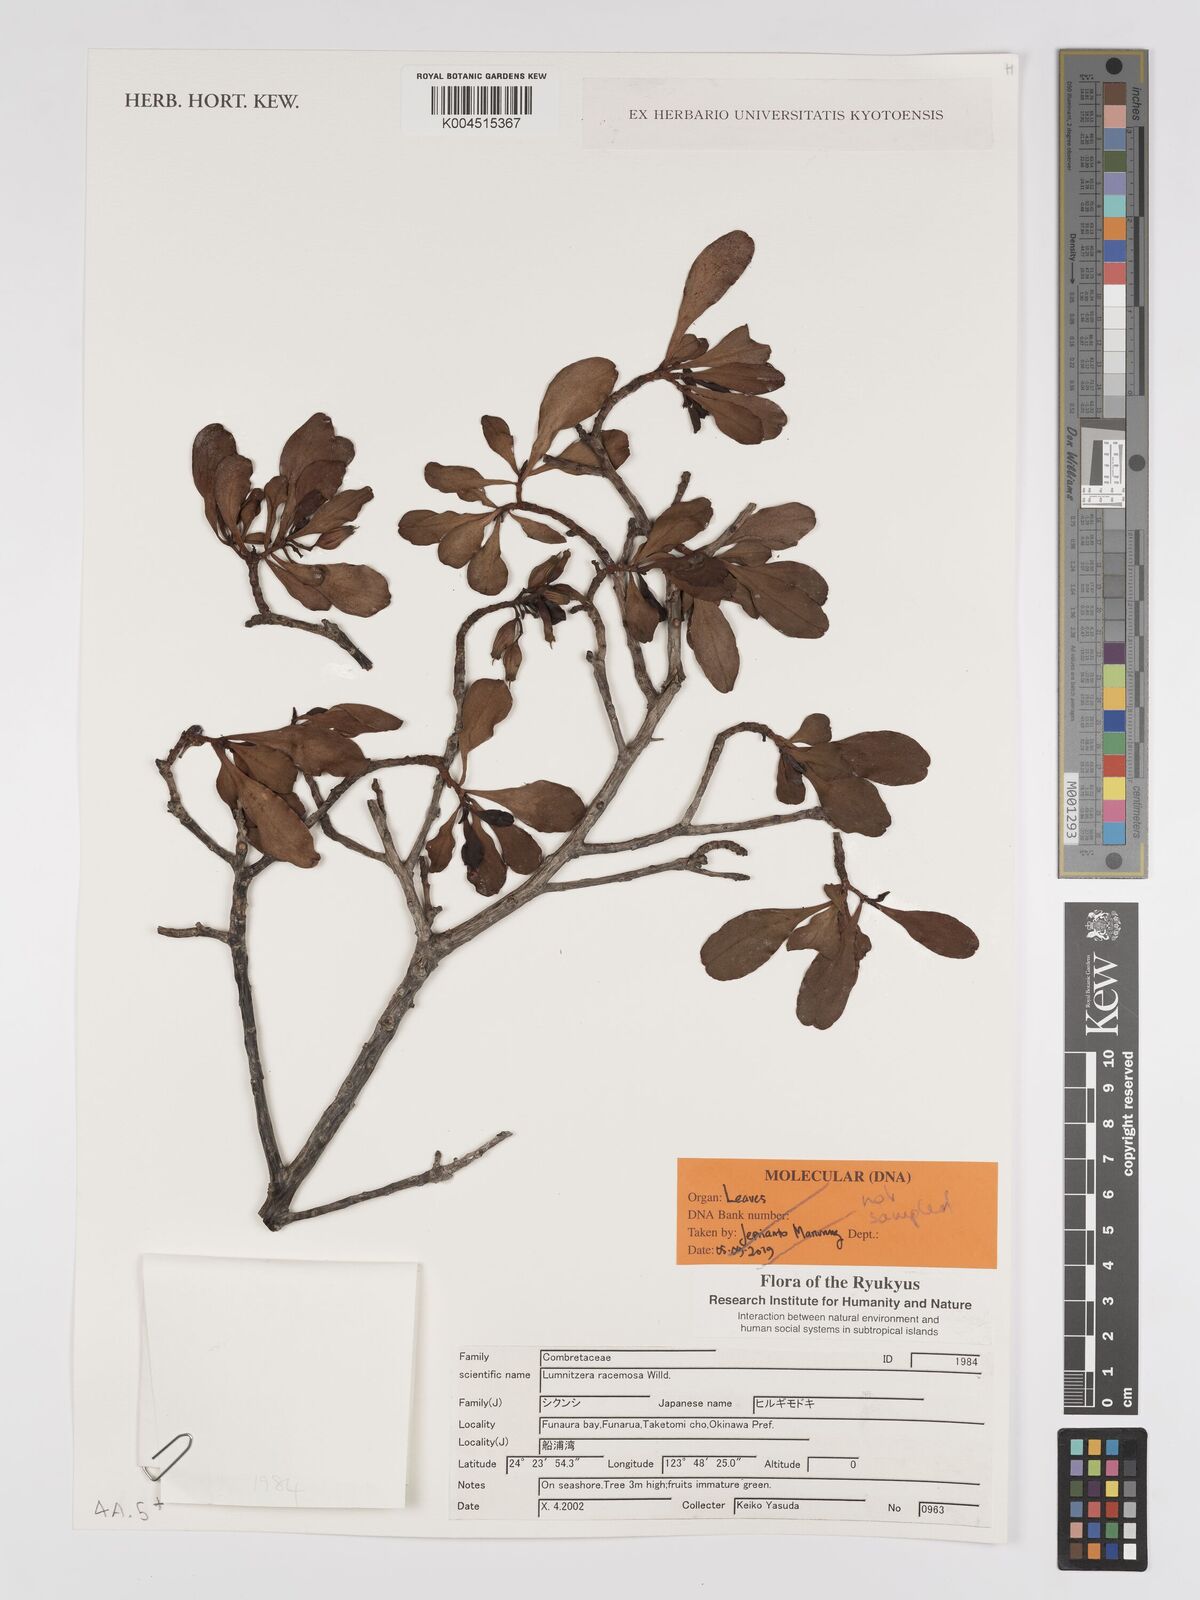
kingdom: Plantae
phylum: Tracheophyta
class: Magnoliopsida
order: Myrtales
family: Combretaceae
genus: Lumnitzera
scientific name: Lumnitzera racemosa
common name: White-flowered black mangrove
